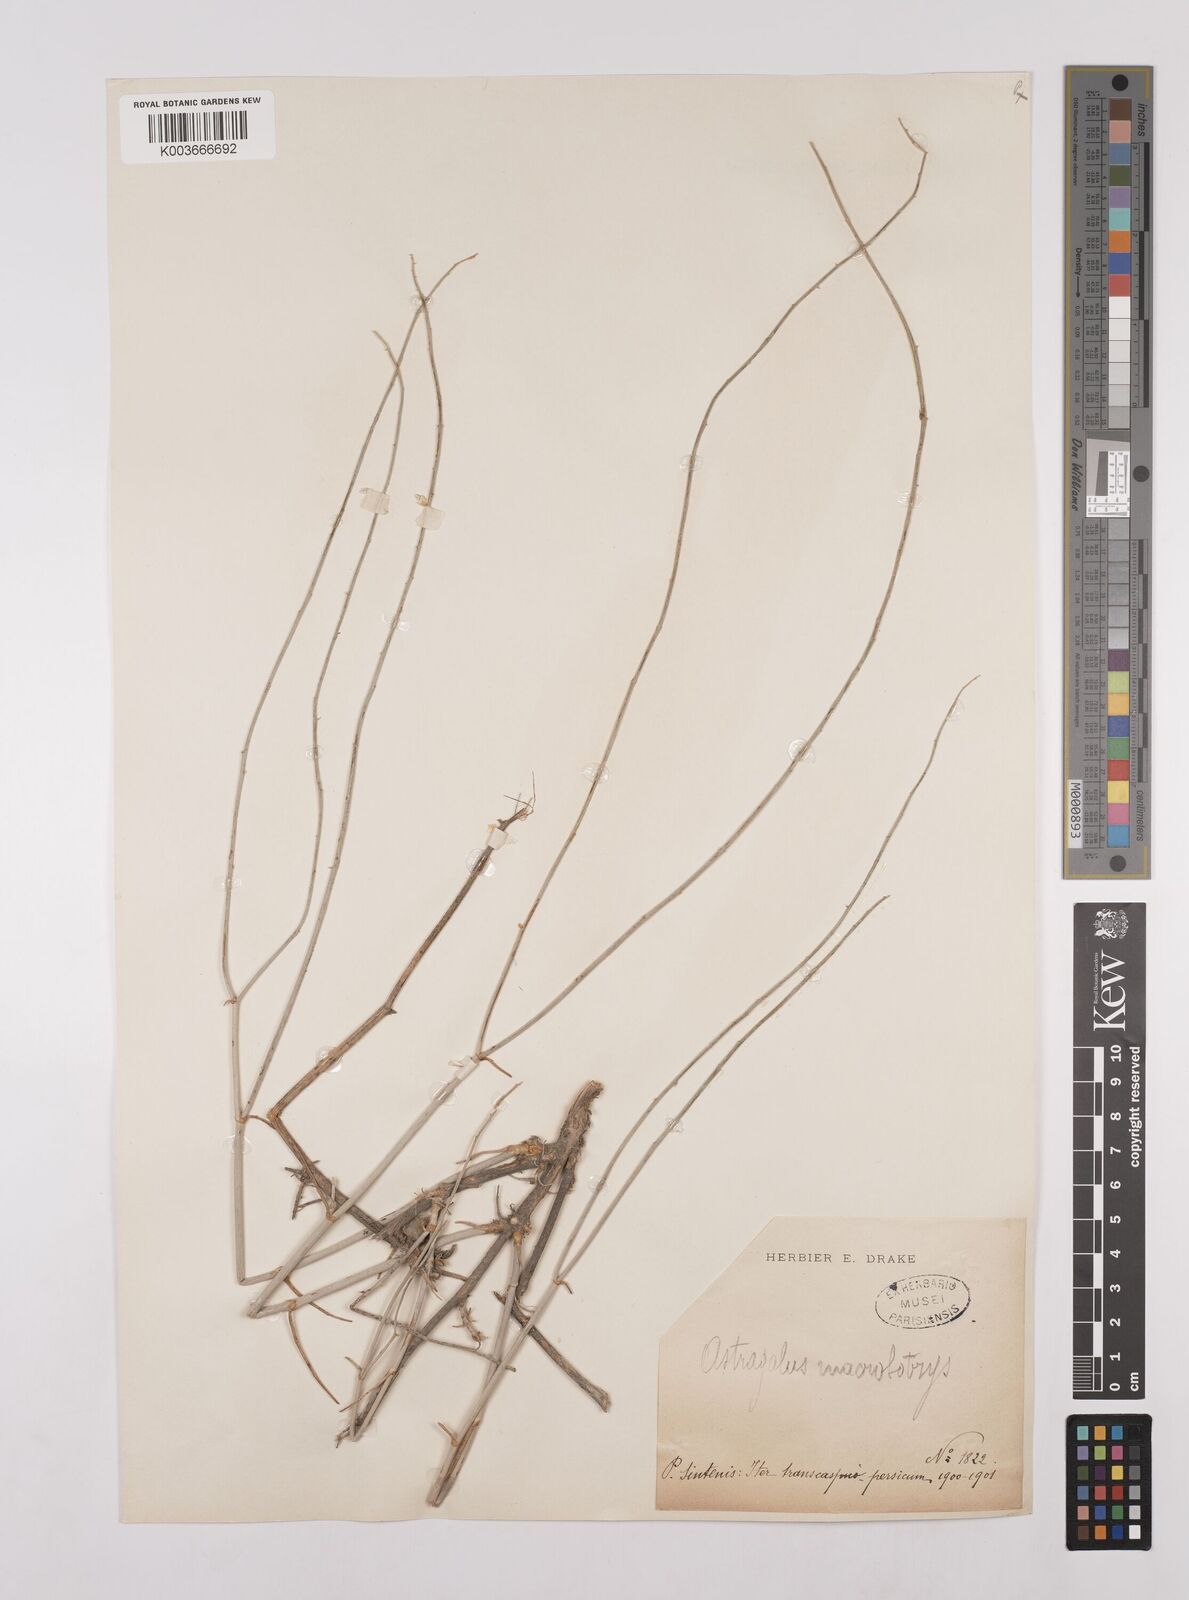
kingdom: Plantae
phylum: Tracheophyta
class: Magnoliopsida
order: Fabales
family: Fabaceae
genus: Astragalus
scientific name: Astragalus macrobotrys
